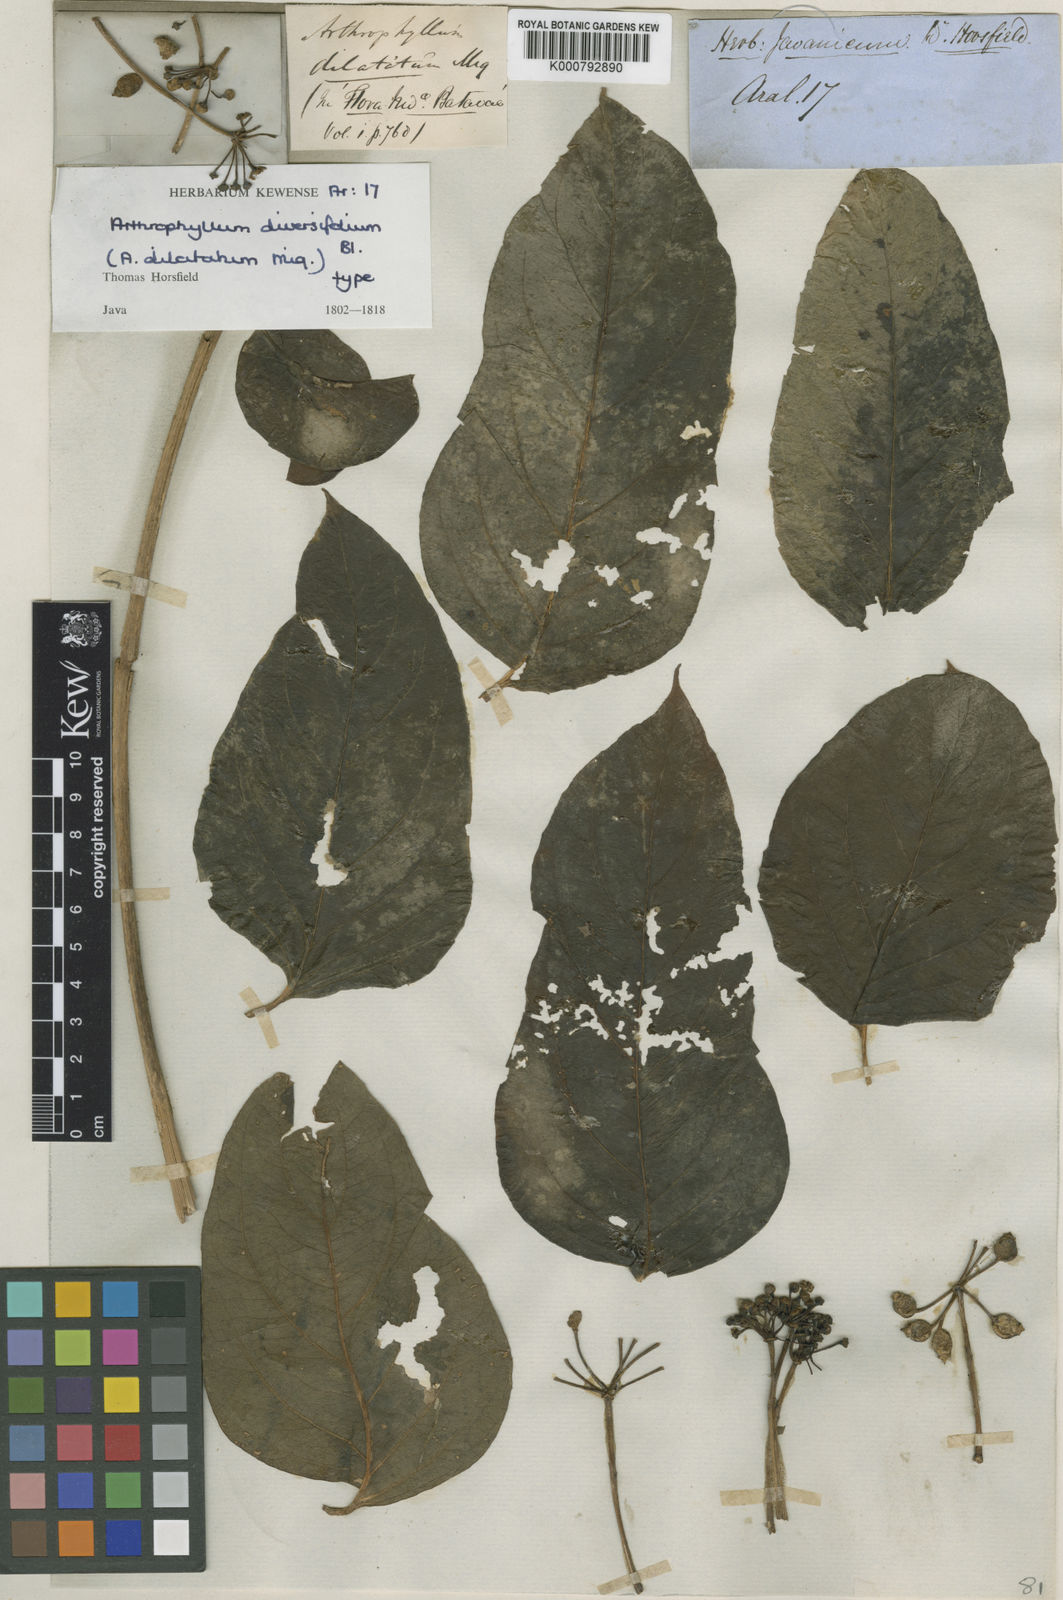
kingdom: Plantae
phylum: Tracheophyta
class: Magnoliopsida
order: Apiales
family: Araliaceae
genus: Polyscias
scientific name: Polyscias diversifolia
